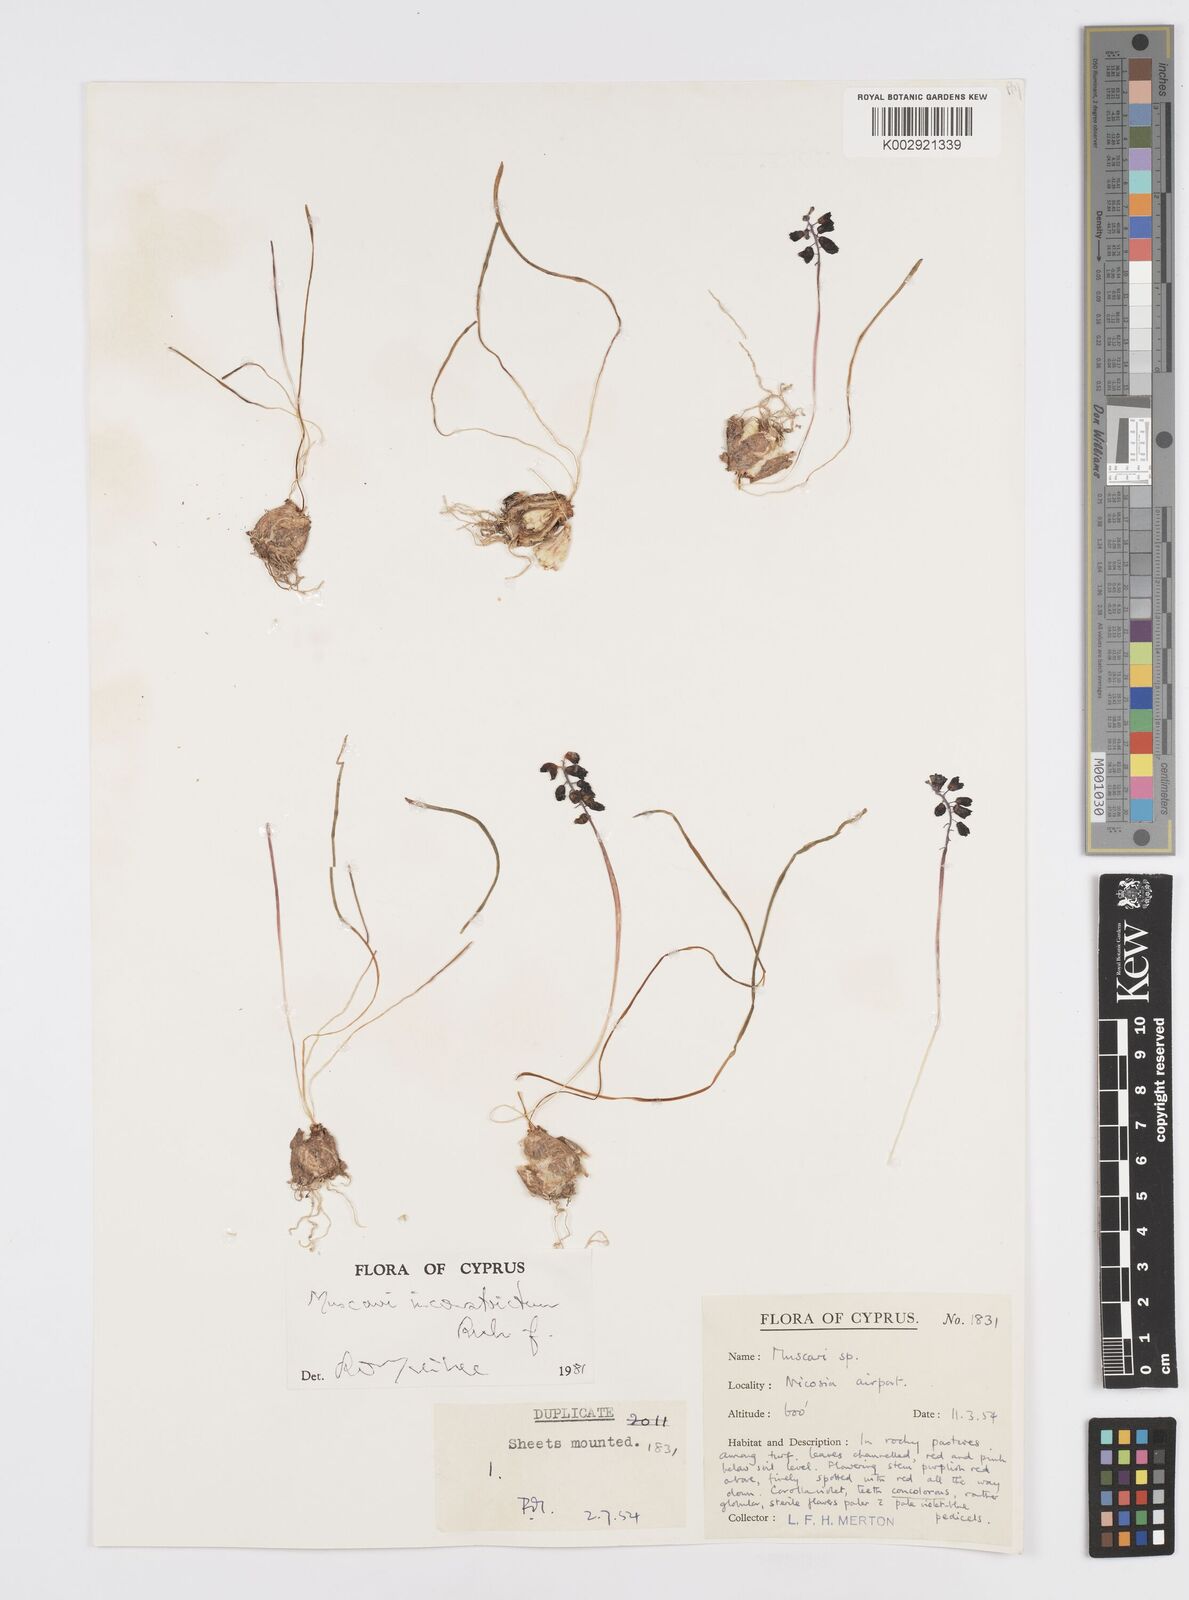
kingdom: Plantae
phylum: Tracheophyta
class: Liliopsida
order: Asparagales
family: Asparagaceae
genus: Muscari
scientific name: Muscari inconstrictum
